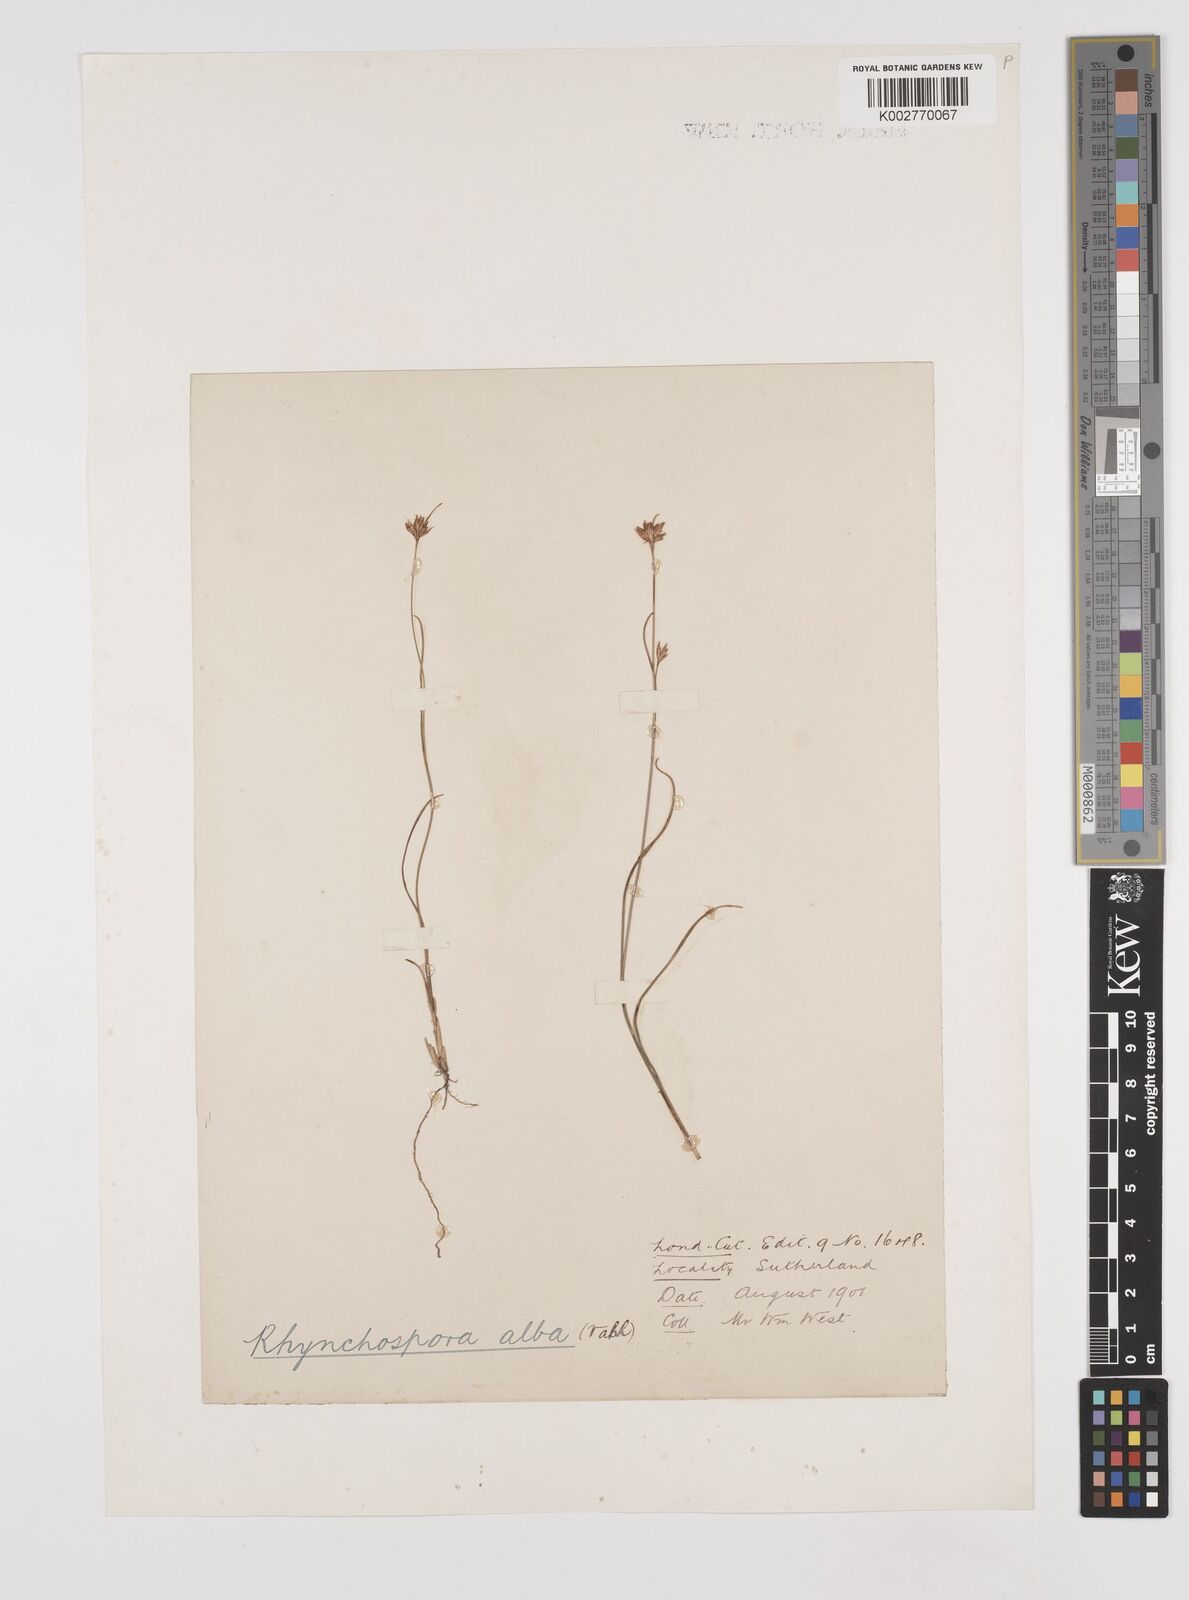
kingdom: Plantae
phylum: Tracheophyta
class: Liliopsida
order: Poales
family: Cyperaceae
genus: Rhynchospora
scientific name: Rhynchospora alba
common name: White beak-sedge
